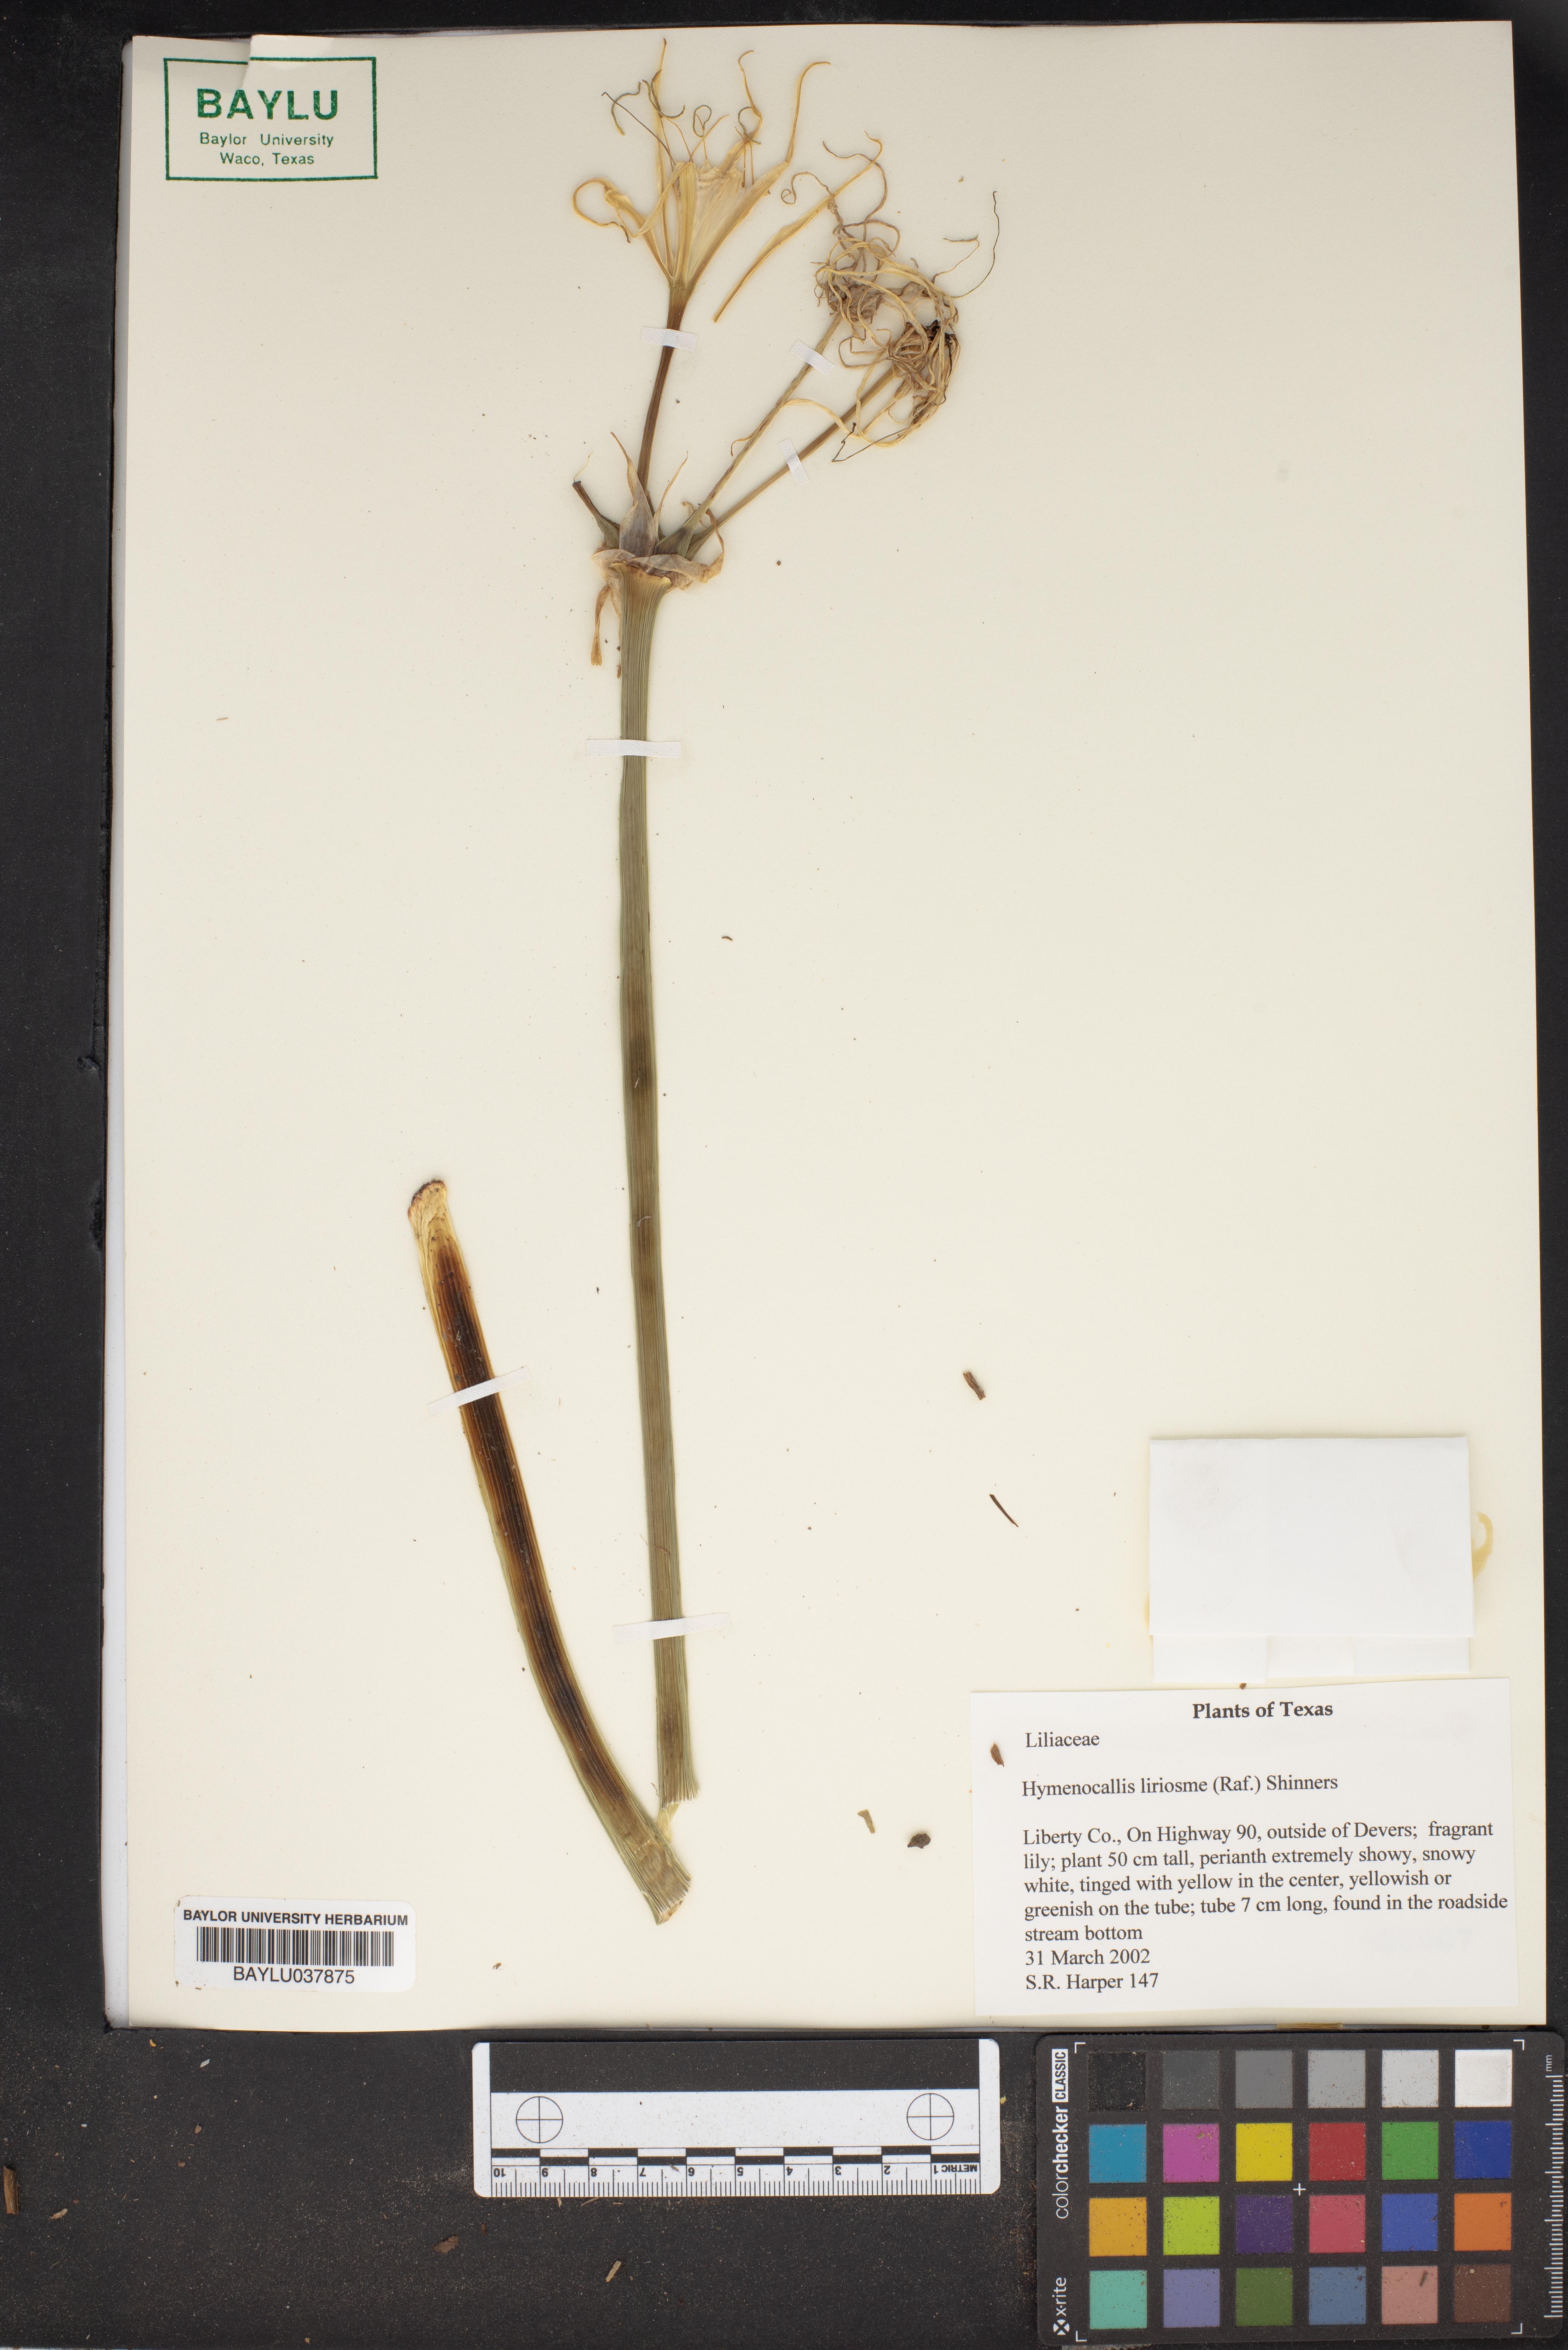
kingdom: Plantae
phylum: Tracheophyta
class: Liliopsida
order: Asparagales
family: Amaryllidaceae
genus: Hymenocallis
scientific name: Hymenocallis liriosme
